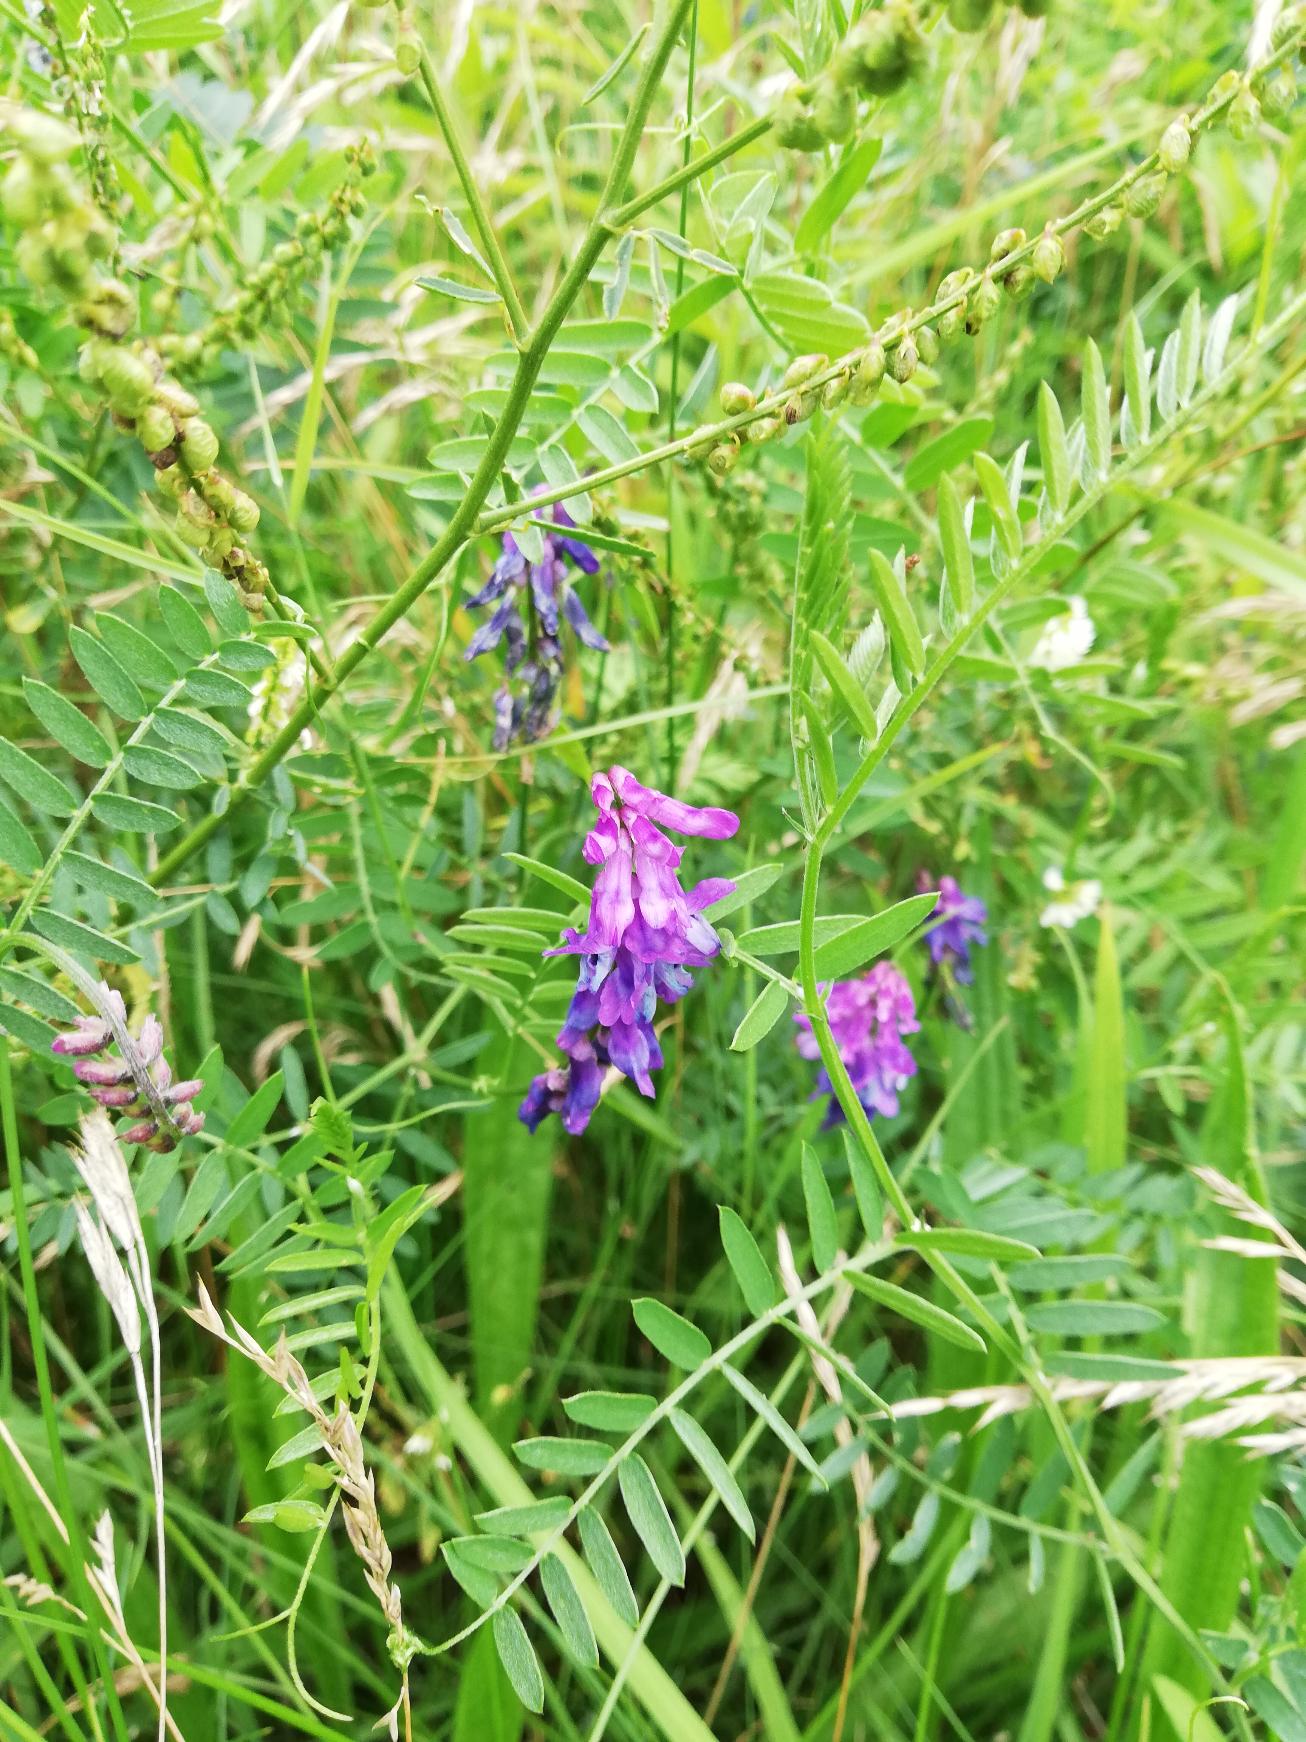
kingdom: Plantae
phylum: Tracheophyta
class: Magnoliopsida
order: Fabales
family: Fabaceae
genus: Vicia
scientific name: Vicia cracca
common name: Muse-vikke
